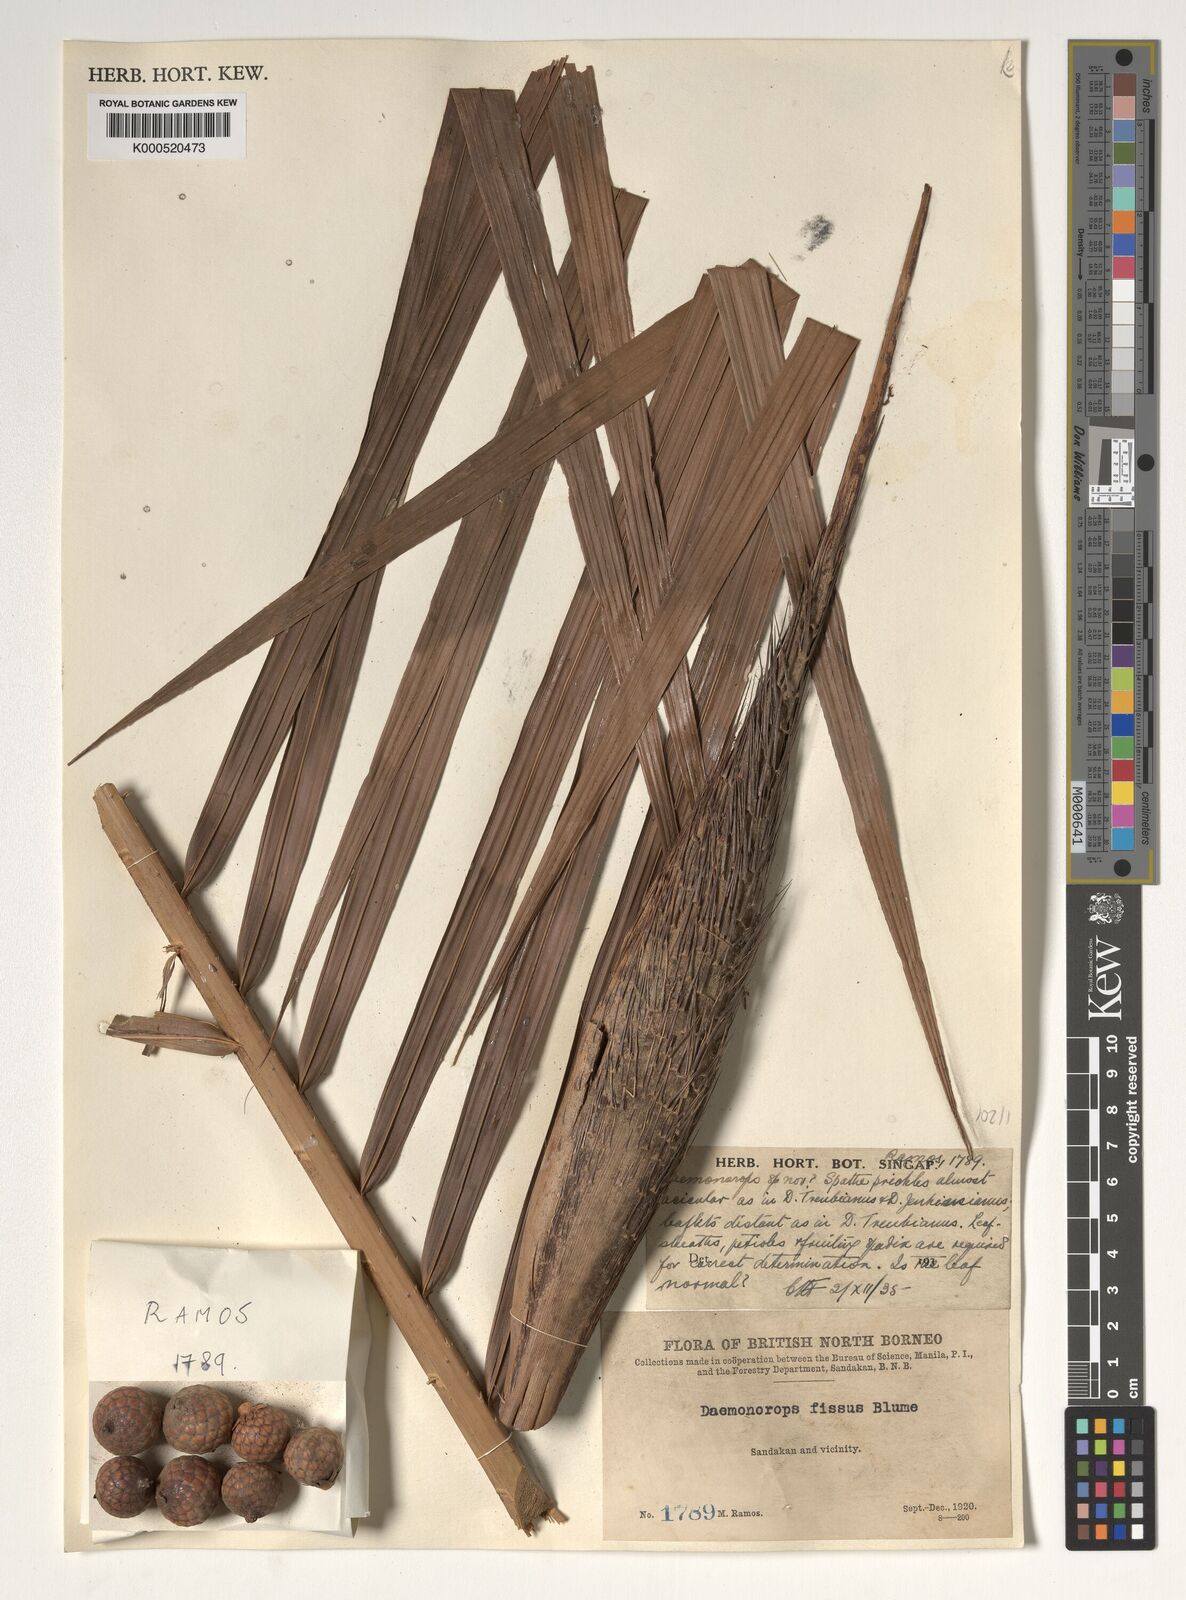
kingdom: Plantae
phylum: Tracheophyta
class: Liliopsida
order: Arecales
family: Arecaceae
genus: Calamus
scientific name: Calamus melanochaetes
